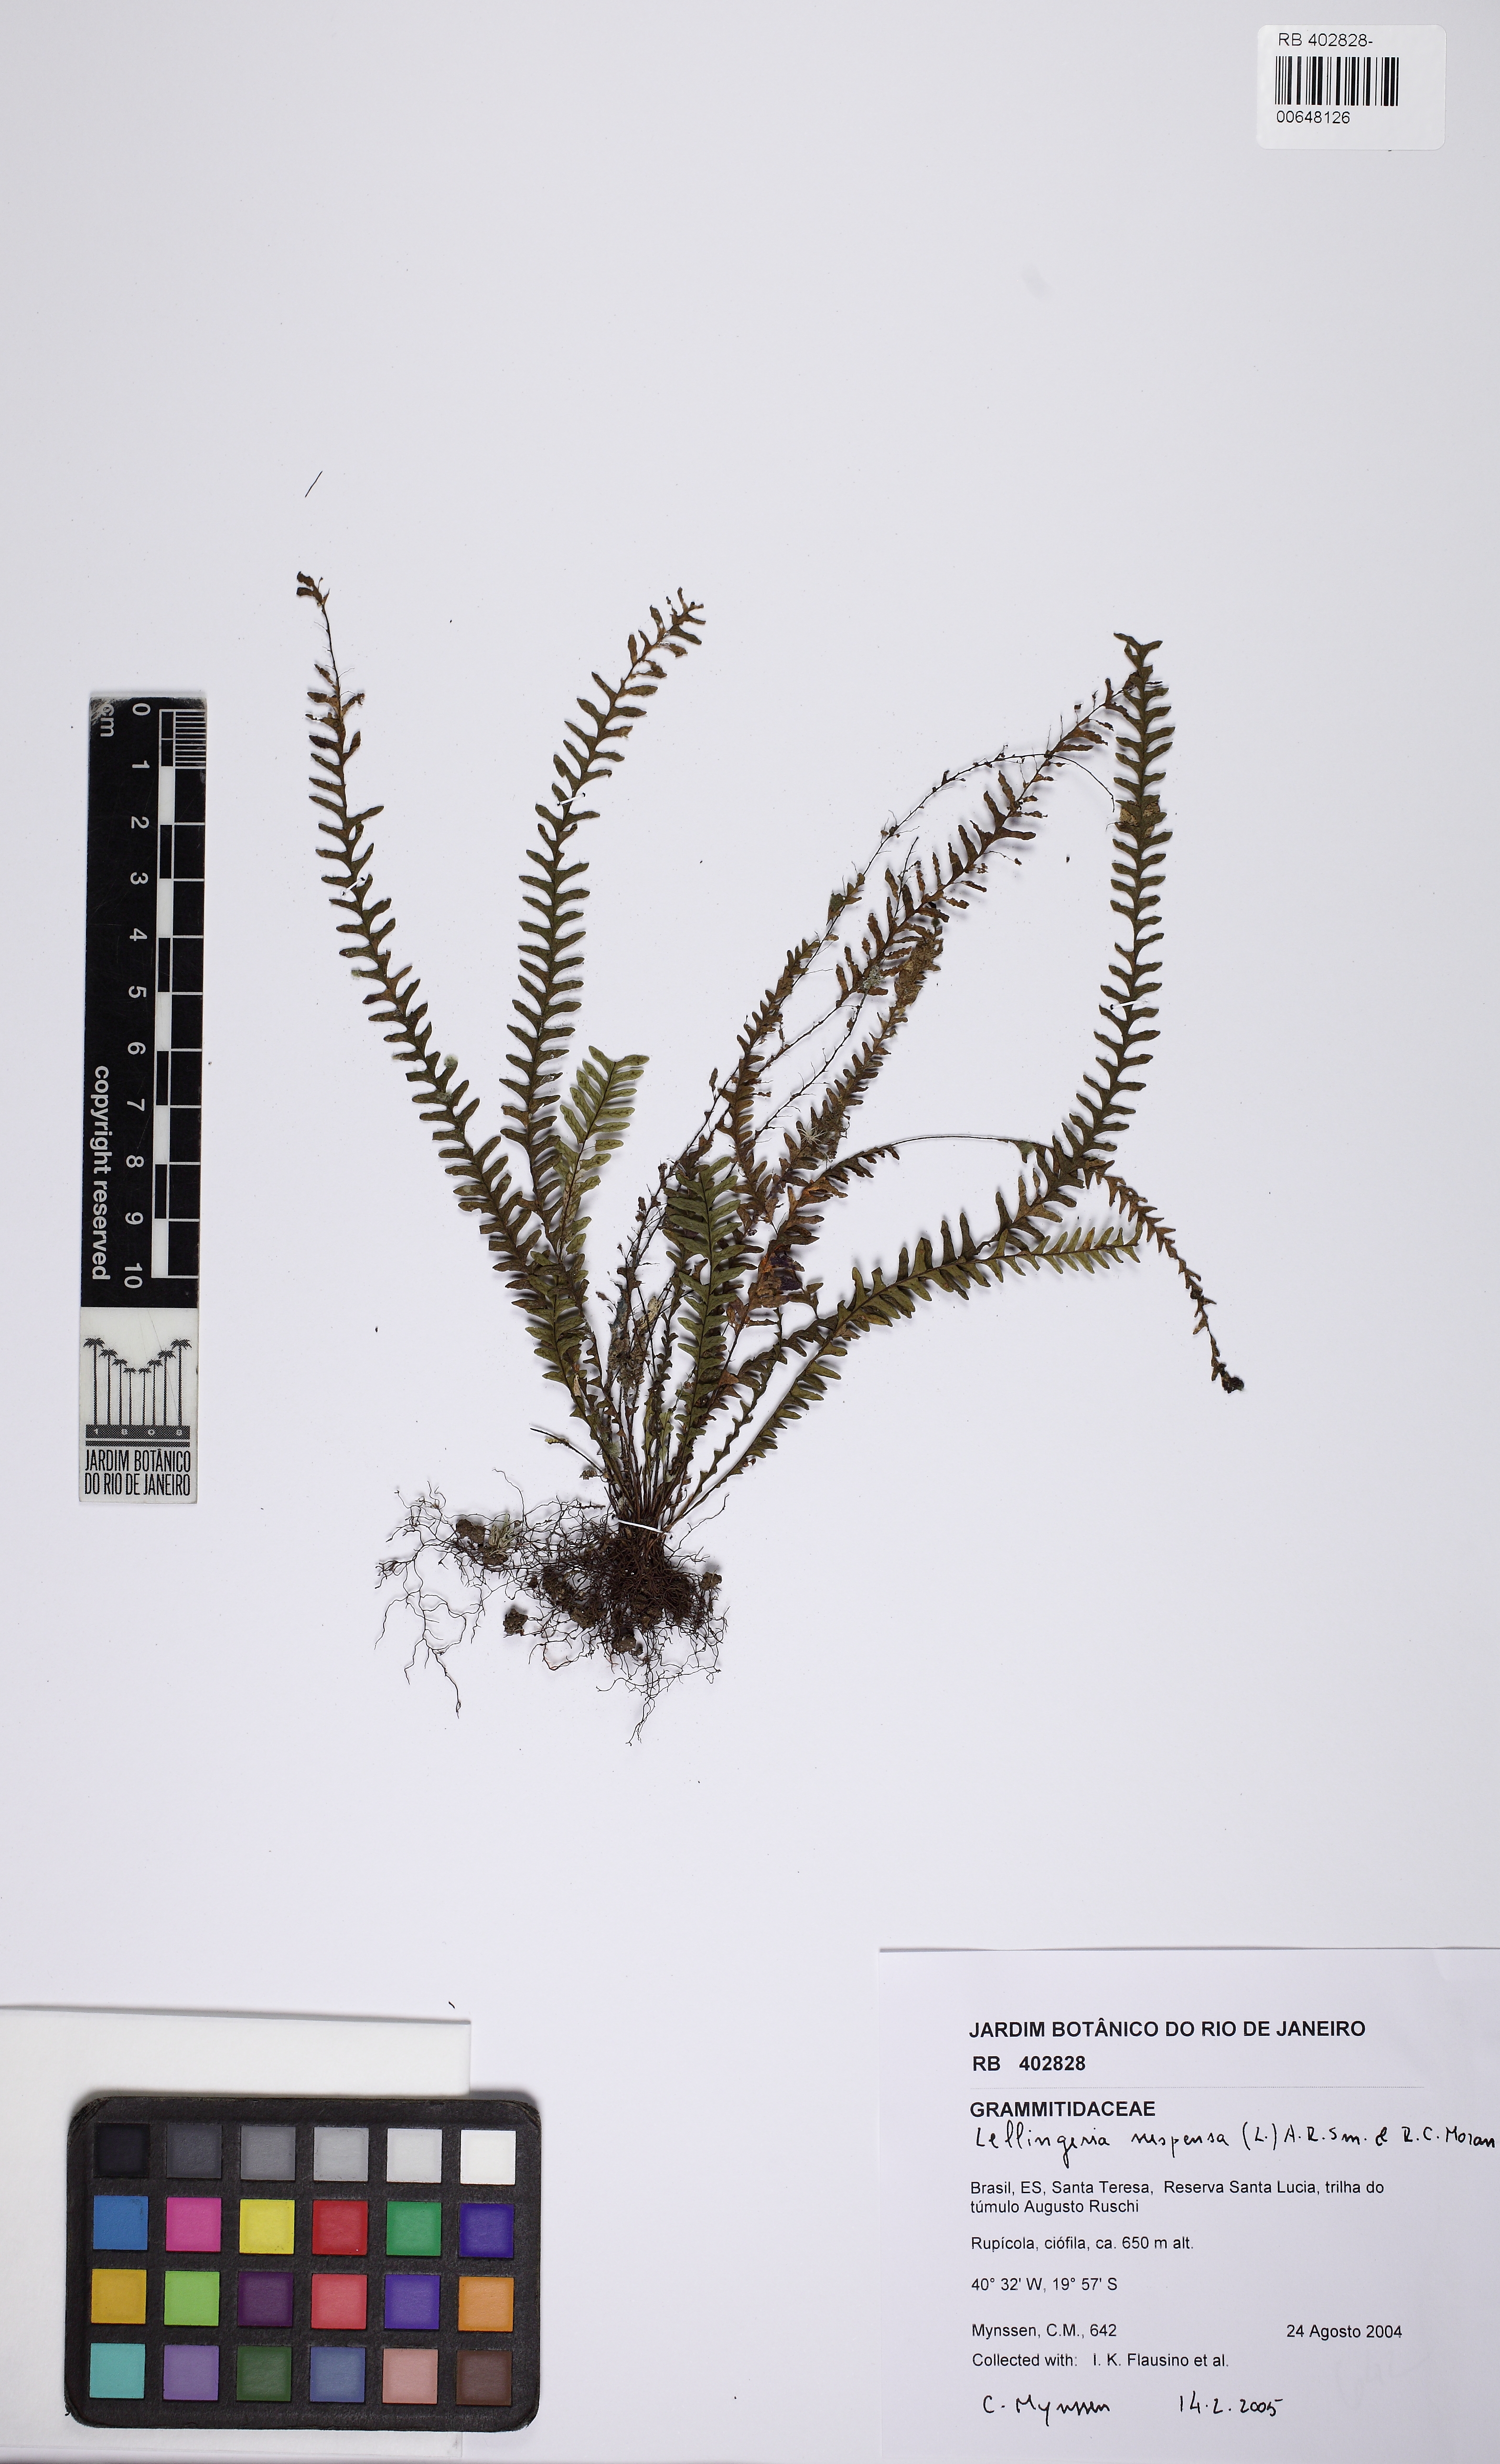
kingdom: Plantae
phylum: Tracheophyta
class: Polypodiopsida
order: Polypodiales
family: Polypodiaceae
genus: Lellingeria
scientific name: Lellingeria suspensa
